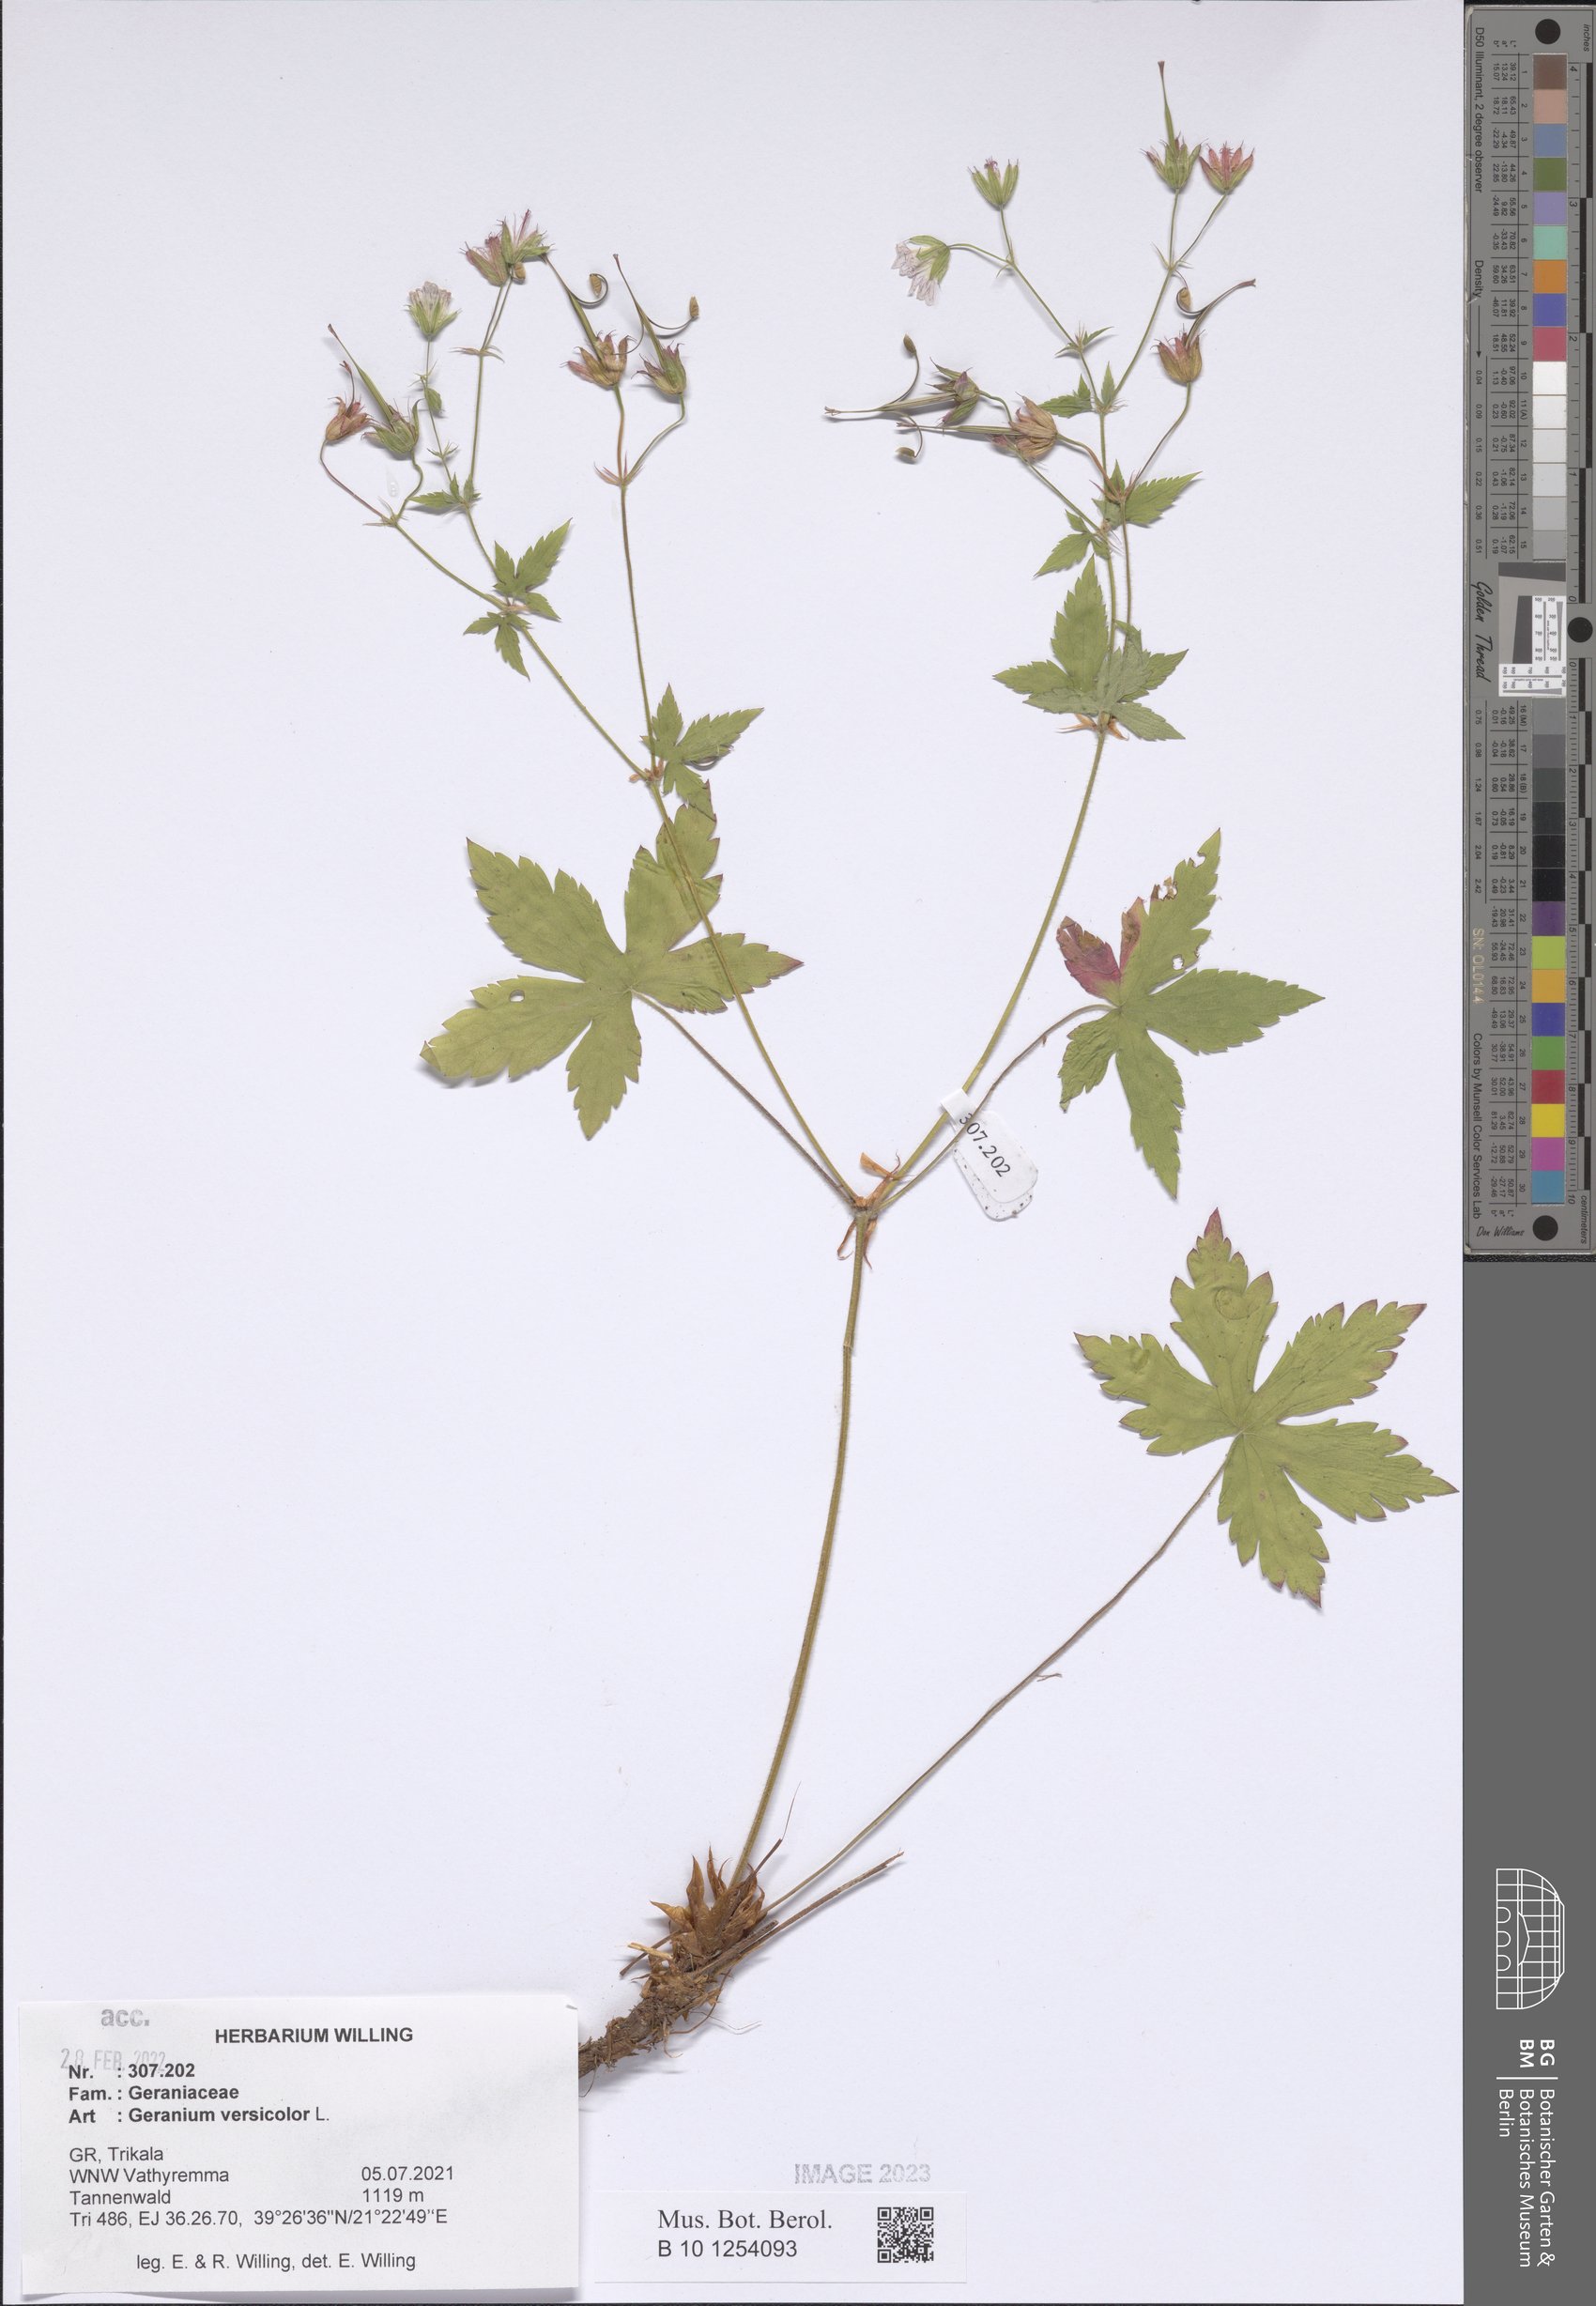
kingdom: Plantae
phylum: Tracheophyta
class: Magnoliopsida
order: Geraniales
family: Geraniaceae
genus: Geranium
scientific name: Geranium versicolor
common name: Pencilled crane's-bill
